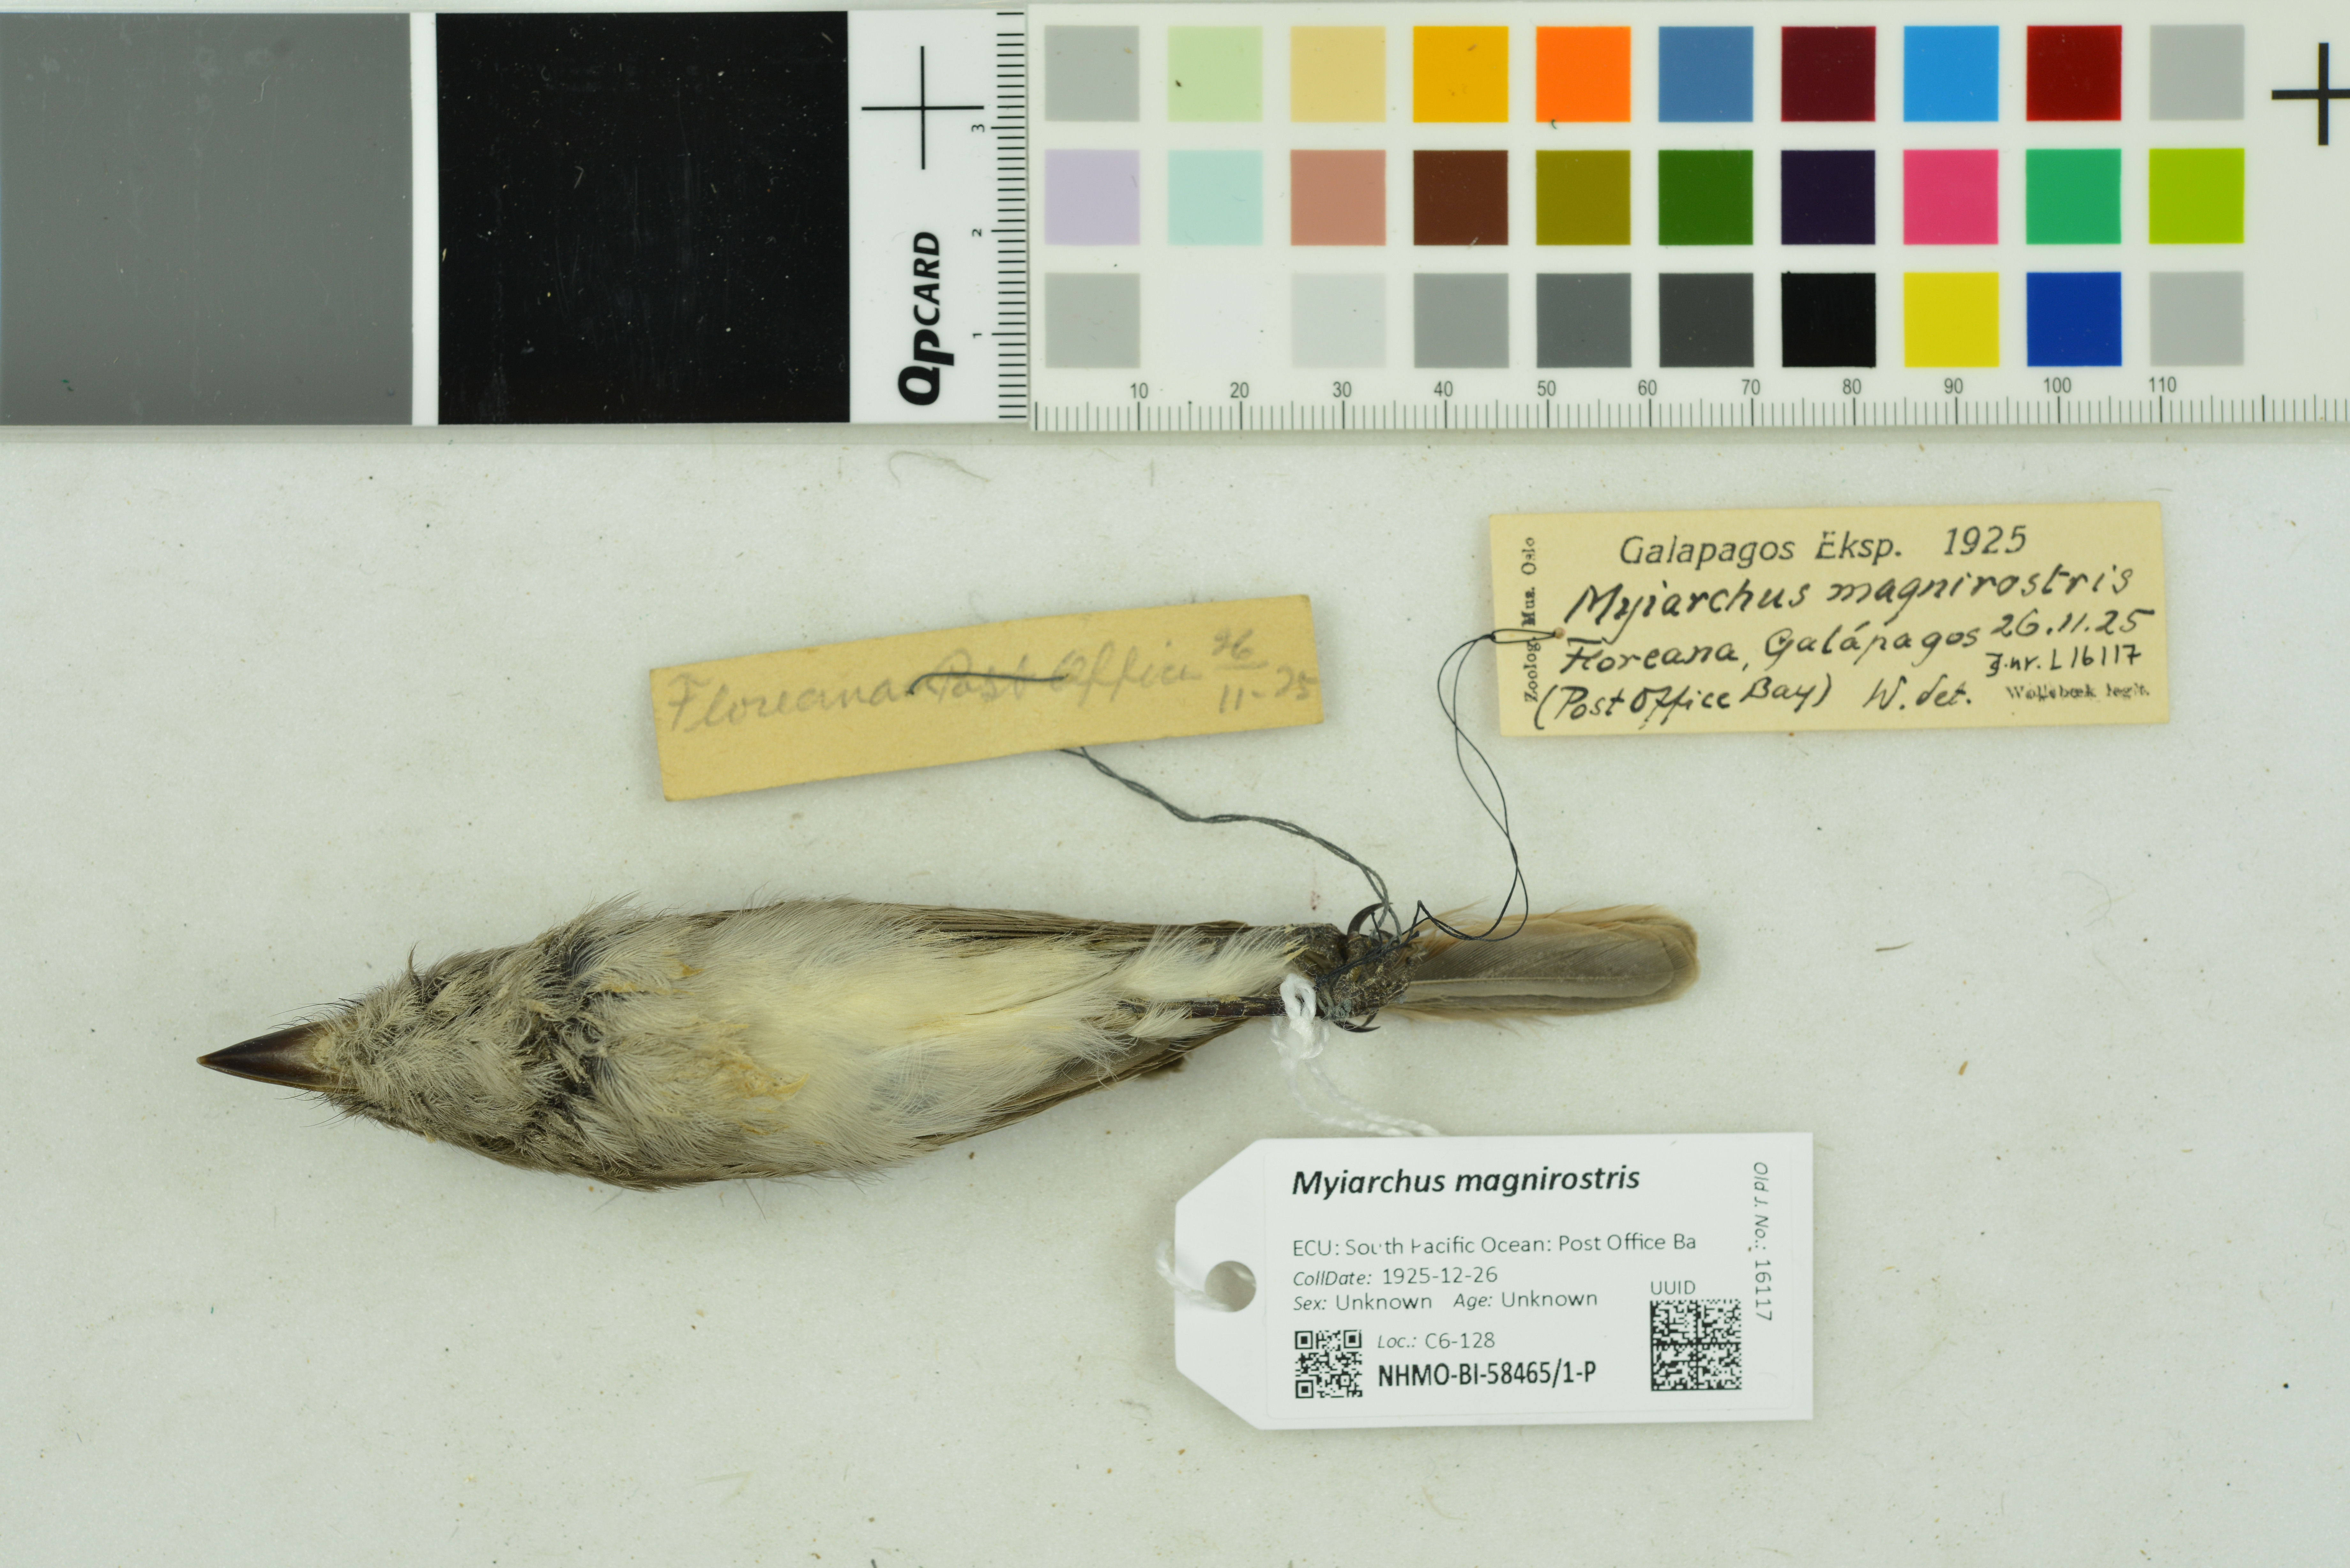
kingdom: Animalia
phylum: Chordata
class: Aves
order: Passeriformes
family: Tyrannidae
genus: Myiarchus
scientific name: Myiarchus magnirostris
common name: Galapagos flycatcher
